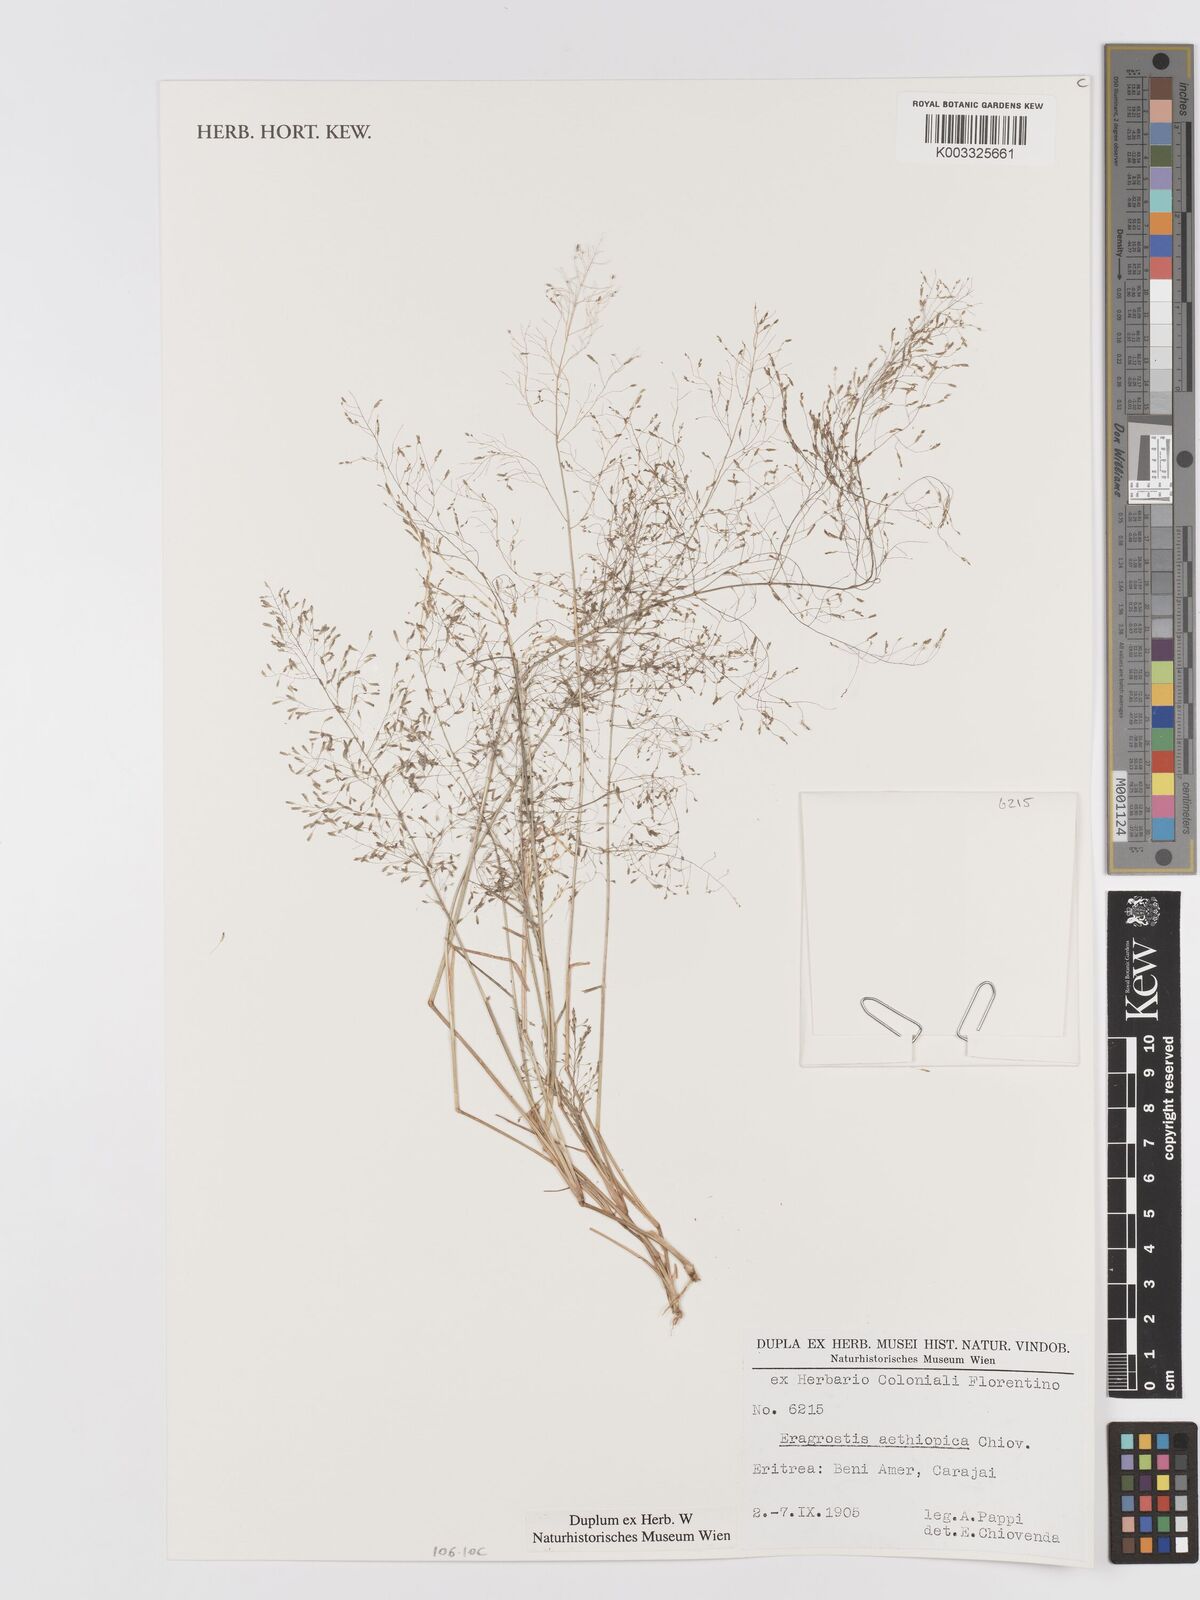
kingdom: Plantae
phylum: Tracheophyta
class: Liliopsida
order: Poales
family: Poaceae
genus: Eragrostis
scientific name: Eragrostis aethiopica
